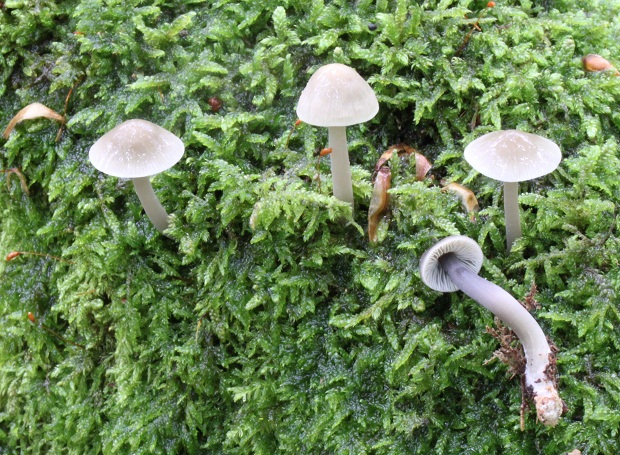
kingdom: Fungi
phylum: Basidiomycota
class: Agaricomycetes
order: Agaricales
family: Mycenaceae
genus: Mycena
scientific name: Mycena galericulata
